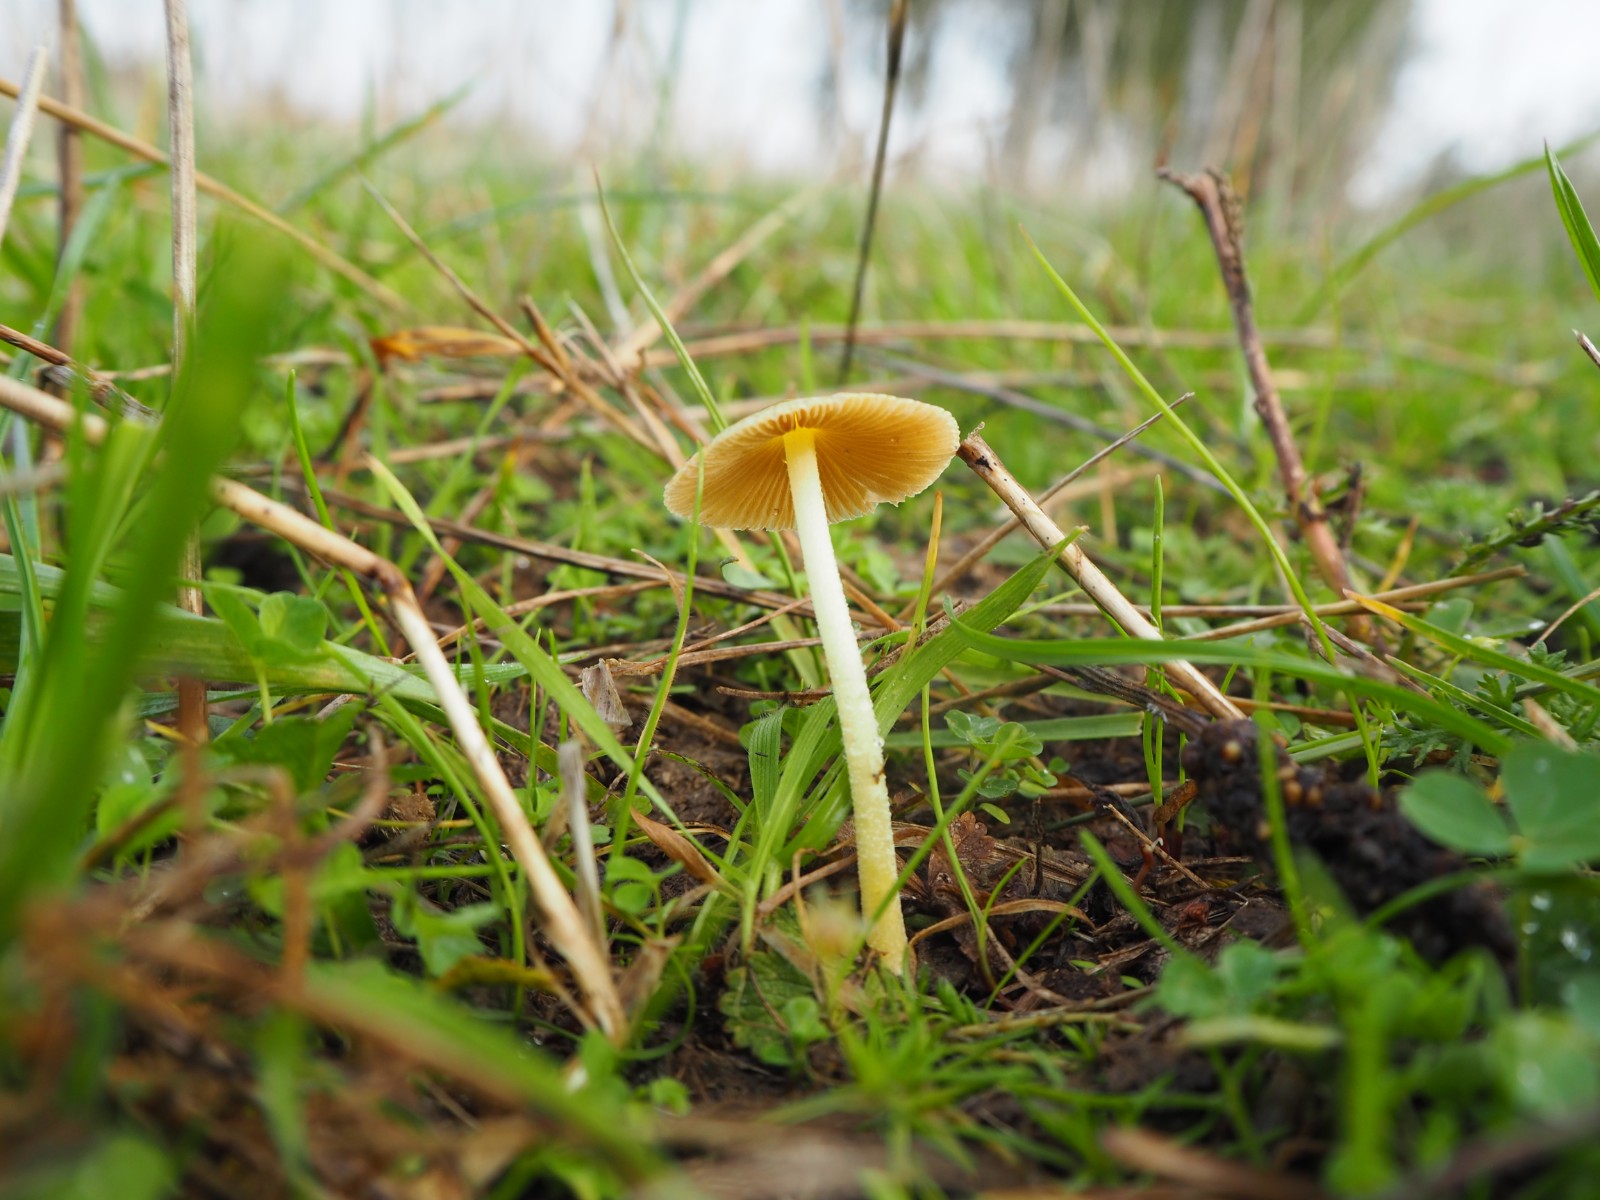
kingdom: Fungi
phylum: Basidiomycota
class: Agaricomycetes
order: Agaricales
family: Bolbitiaceae
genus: Bolbitius
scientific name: Bolbitius titubans
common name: almindelig gulhat
